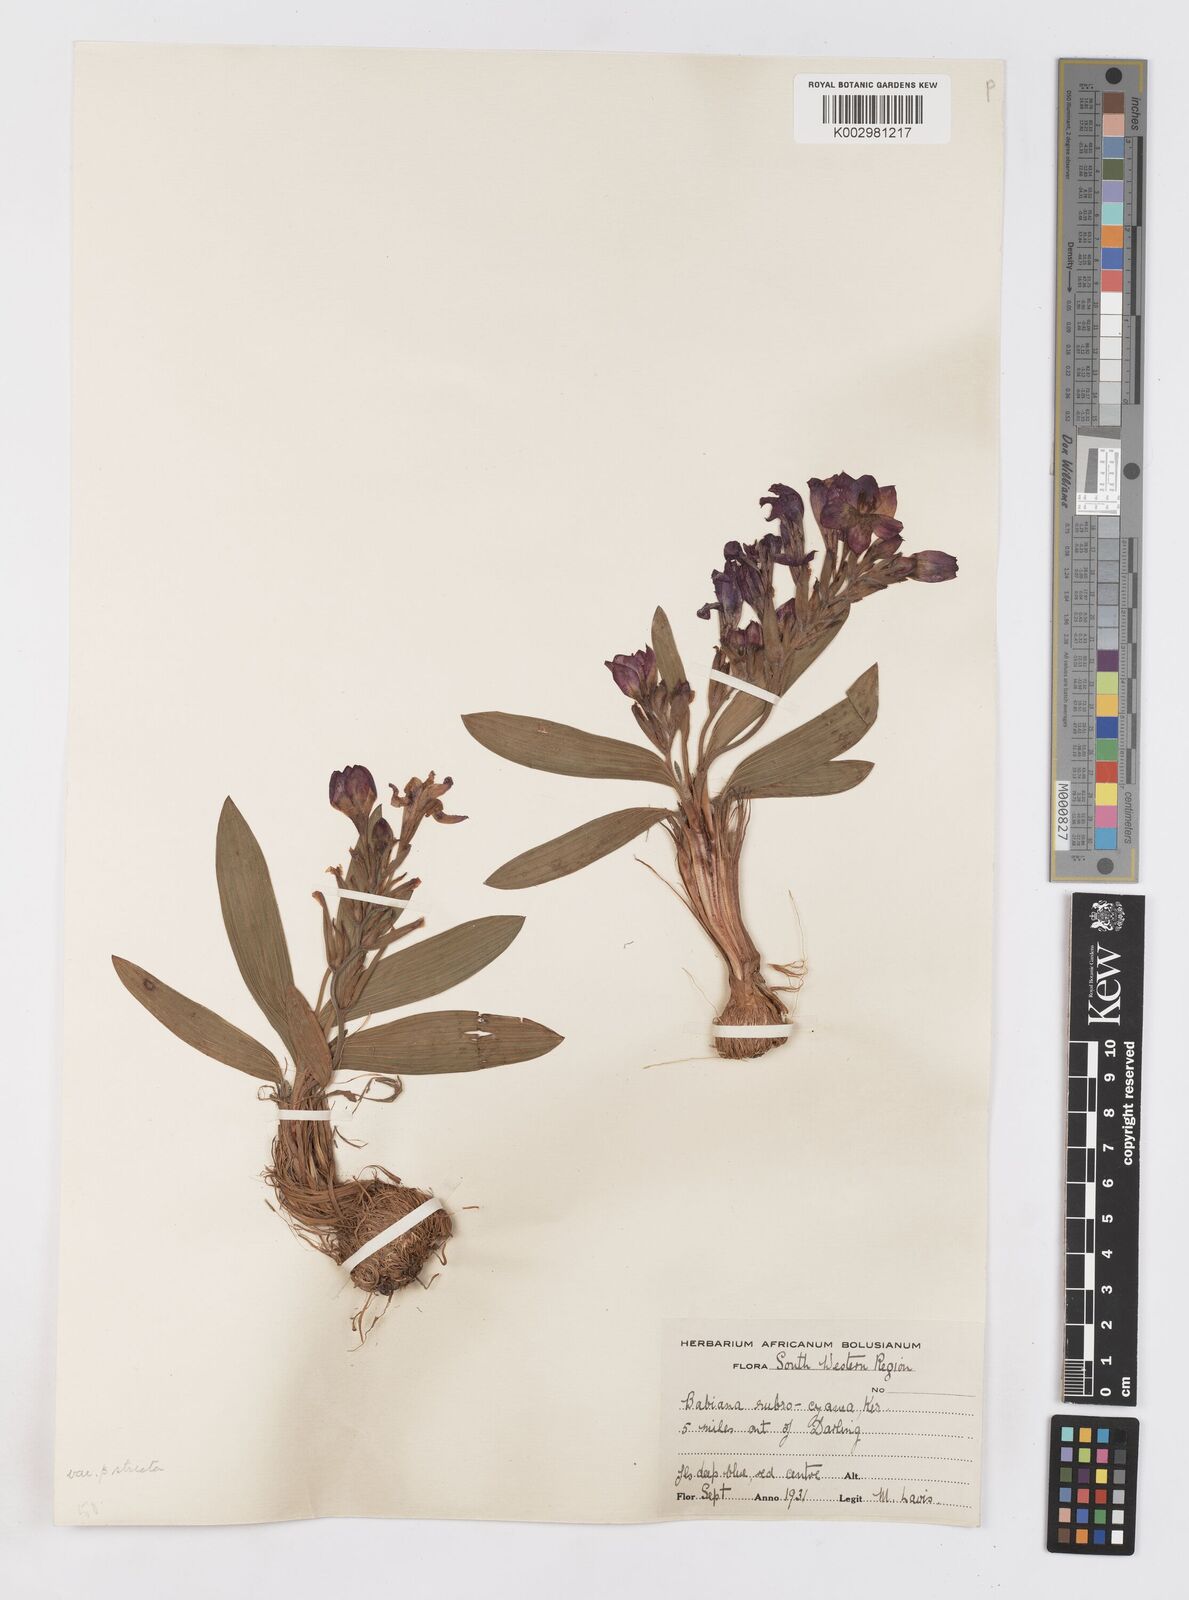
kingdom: Plantae
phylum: Tracheophyta
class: Liliopsida
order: Asparagales
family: Iridaceae
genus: Babiana
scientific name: Babiana rubrocyanea
